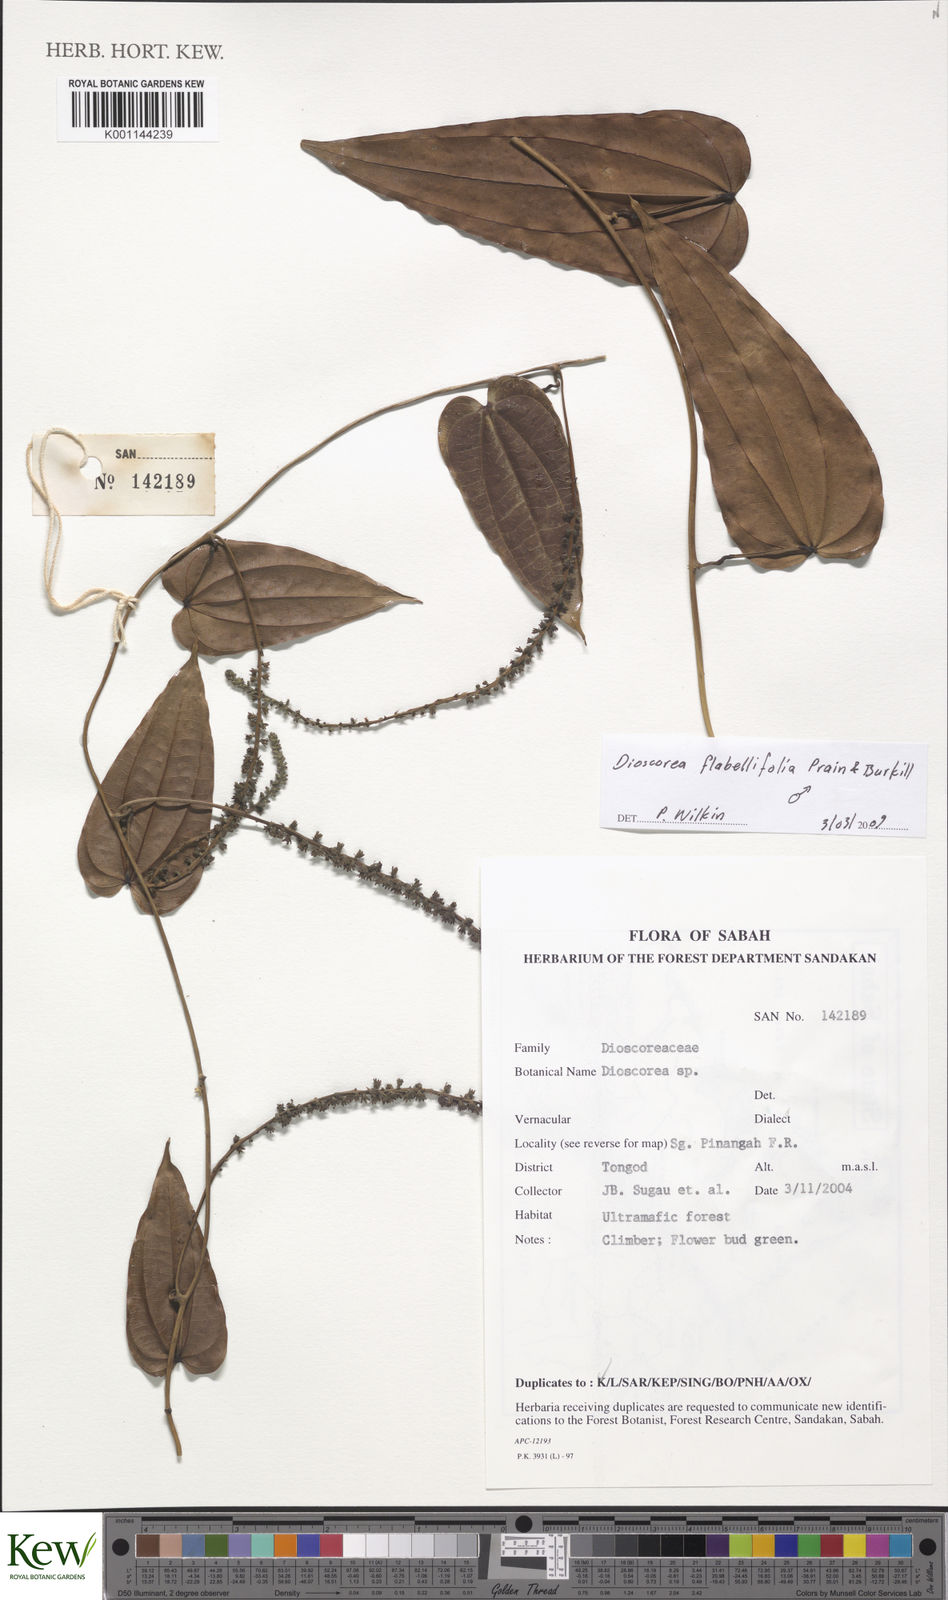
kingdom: Plantae
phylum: Tracheophyta
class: Liliopsida
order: Dioscoreales
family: Dioscoreaceae
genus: Dioscorea
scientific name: Dioscorea flabellifolia
